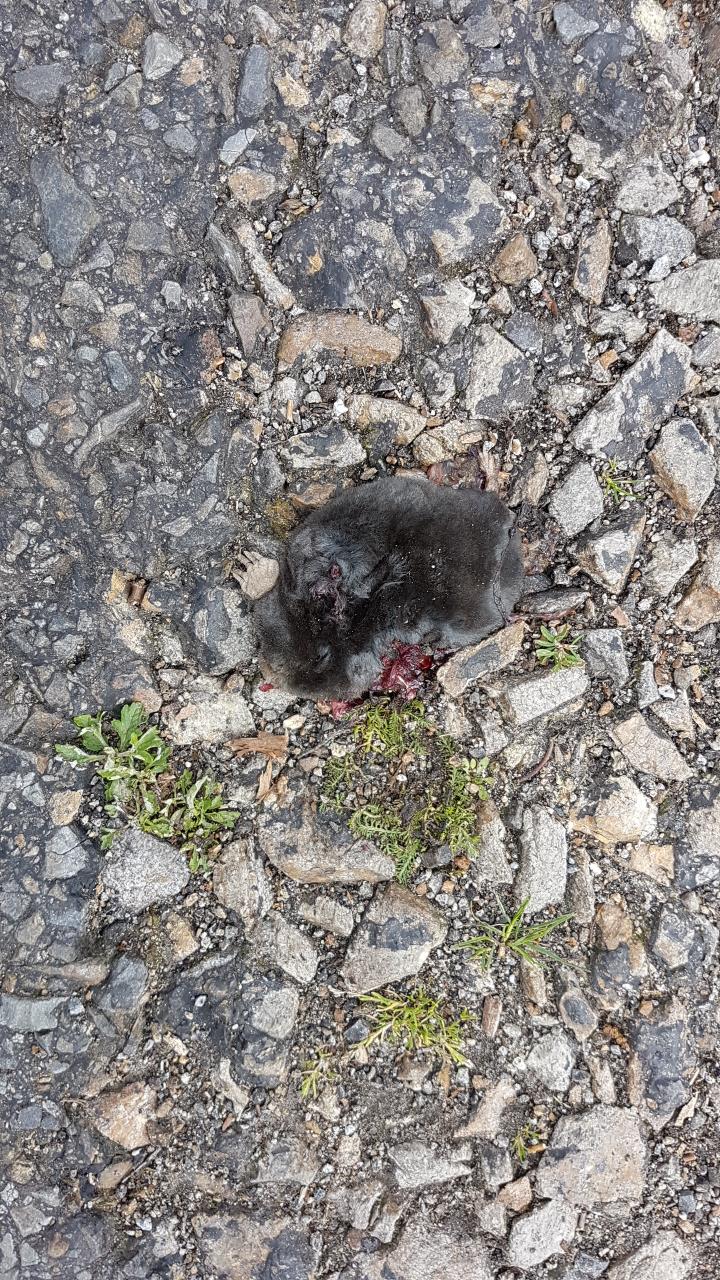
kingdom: Animalia
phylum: Chordata
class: Mammalia
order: Soricomorpha
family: Talpidae
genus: Talpa
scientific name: Talpa europaea
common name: European mole
